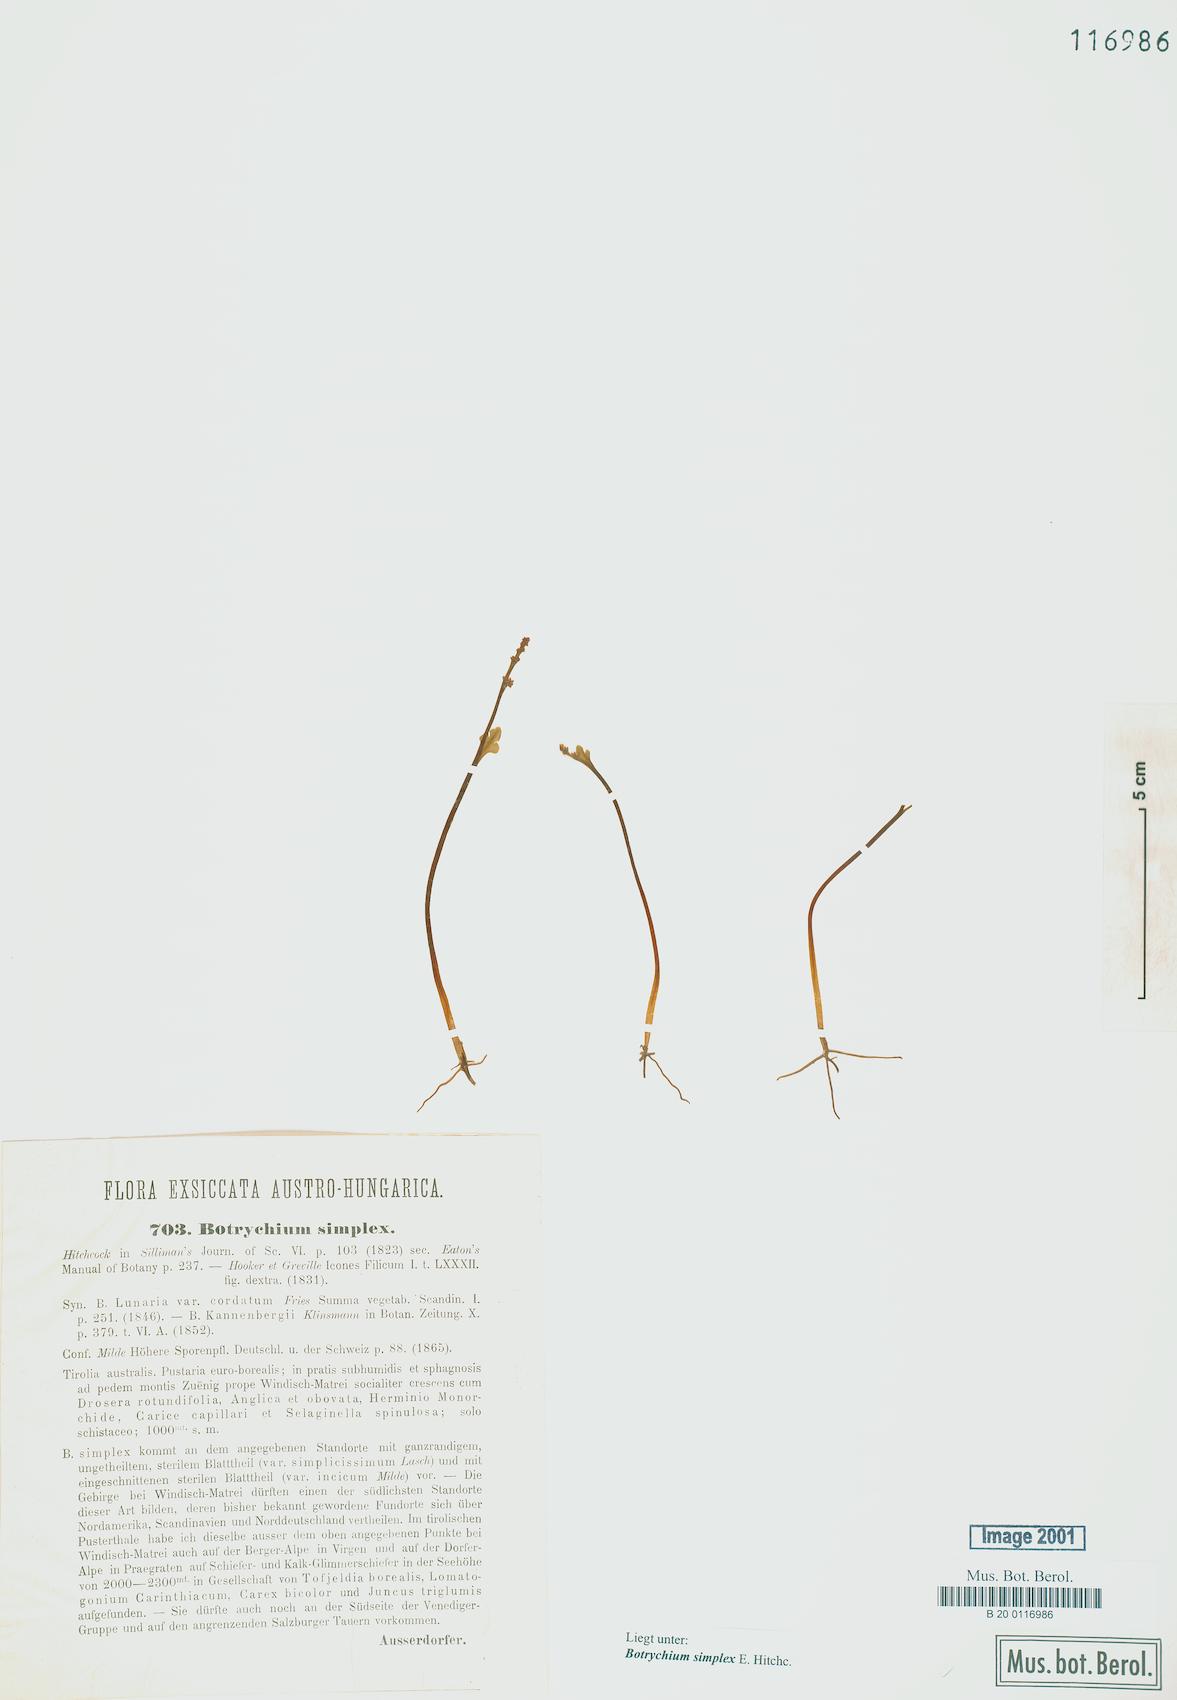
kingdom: Plantae
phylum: Tracheophyta
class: Polypodiopsida
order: Ophioglossales
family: Ophioglossaceae
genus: Botrychium
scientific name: Botrychium simplex
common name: Least moonwort
